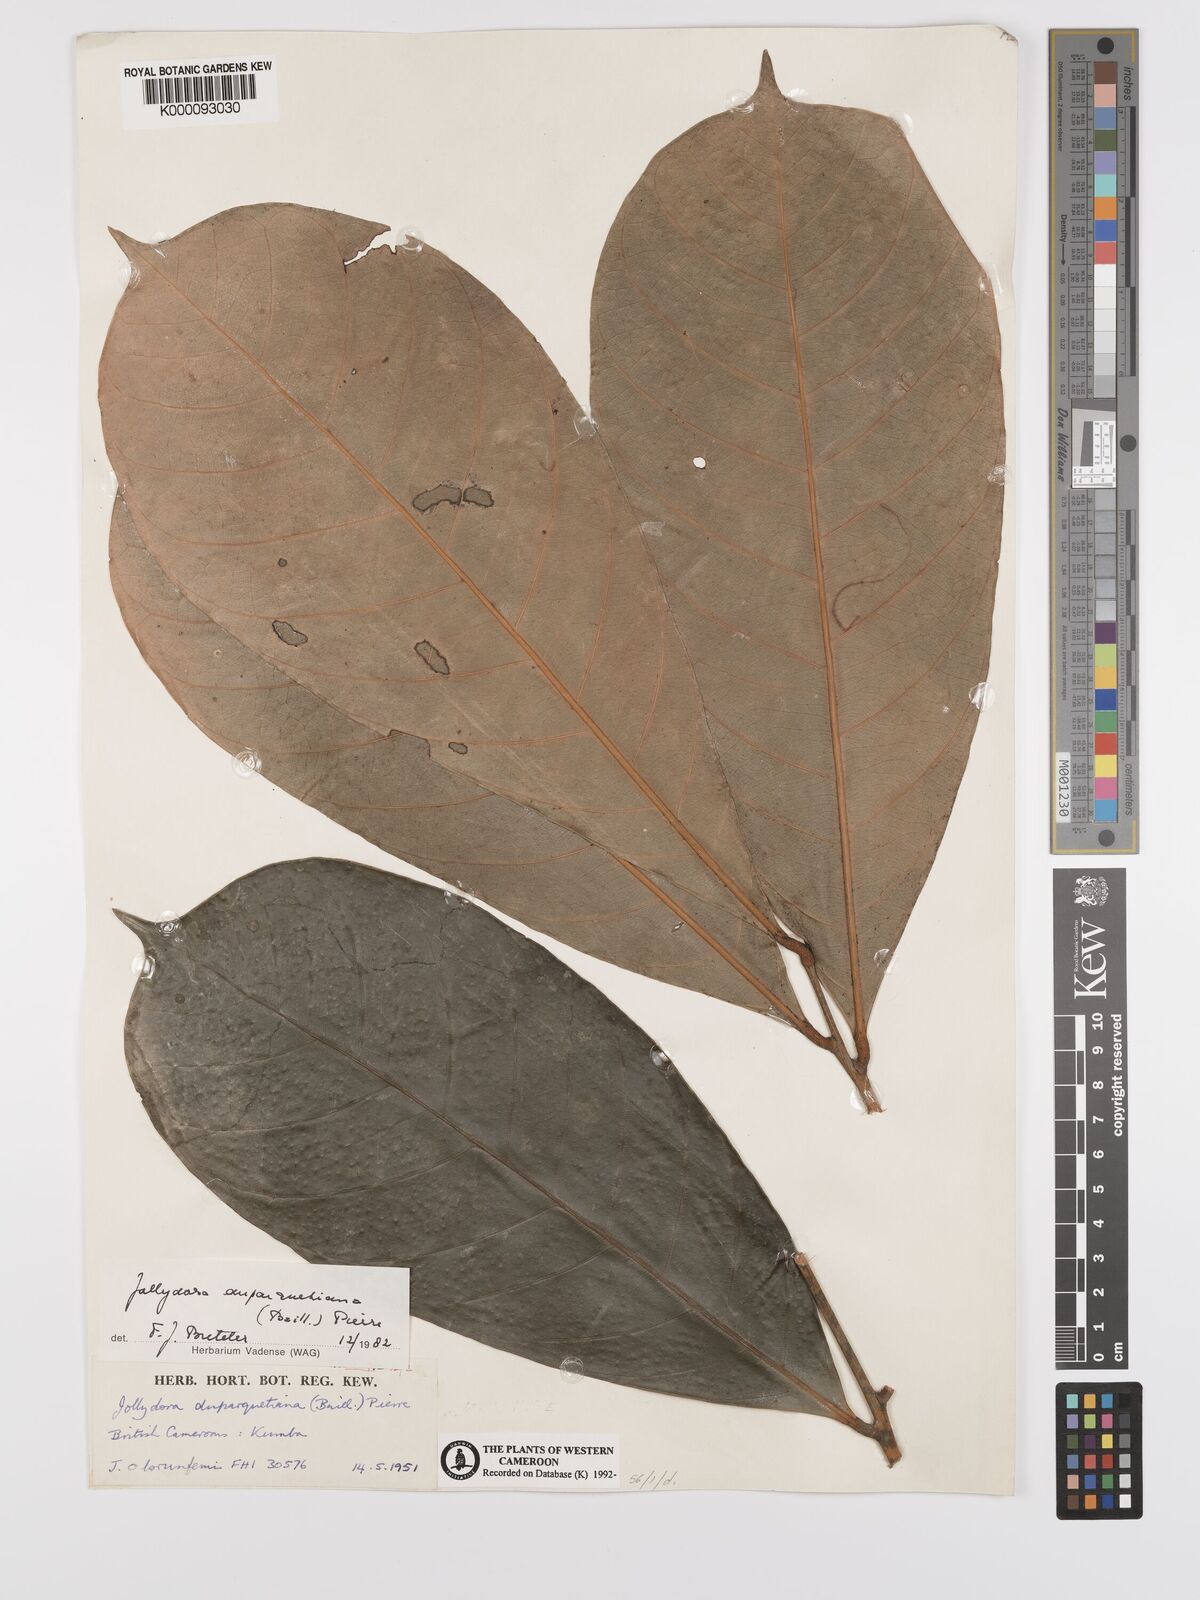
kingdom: Plantae
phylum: Tracheophyta
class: Magnoliopsida
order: Oxalidales
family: Connaraceae
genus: Jollydora
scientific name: Jollydora duparquetiana
